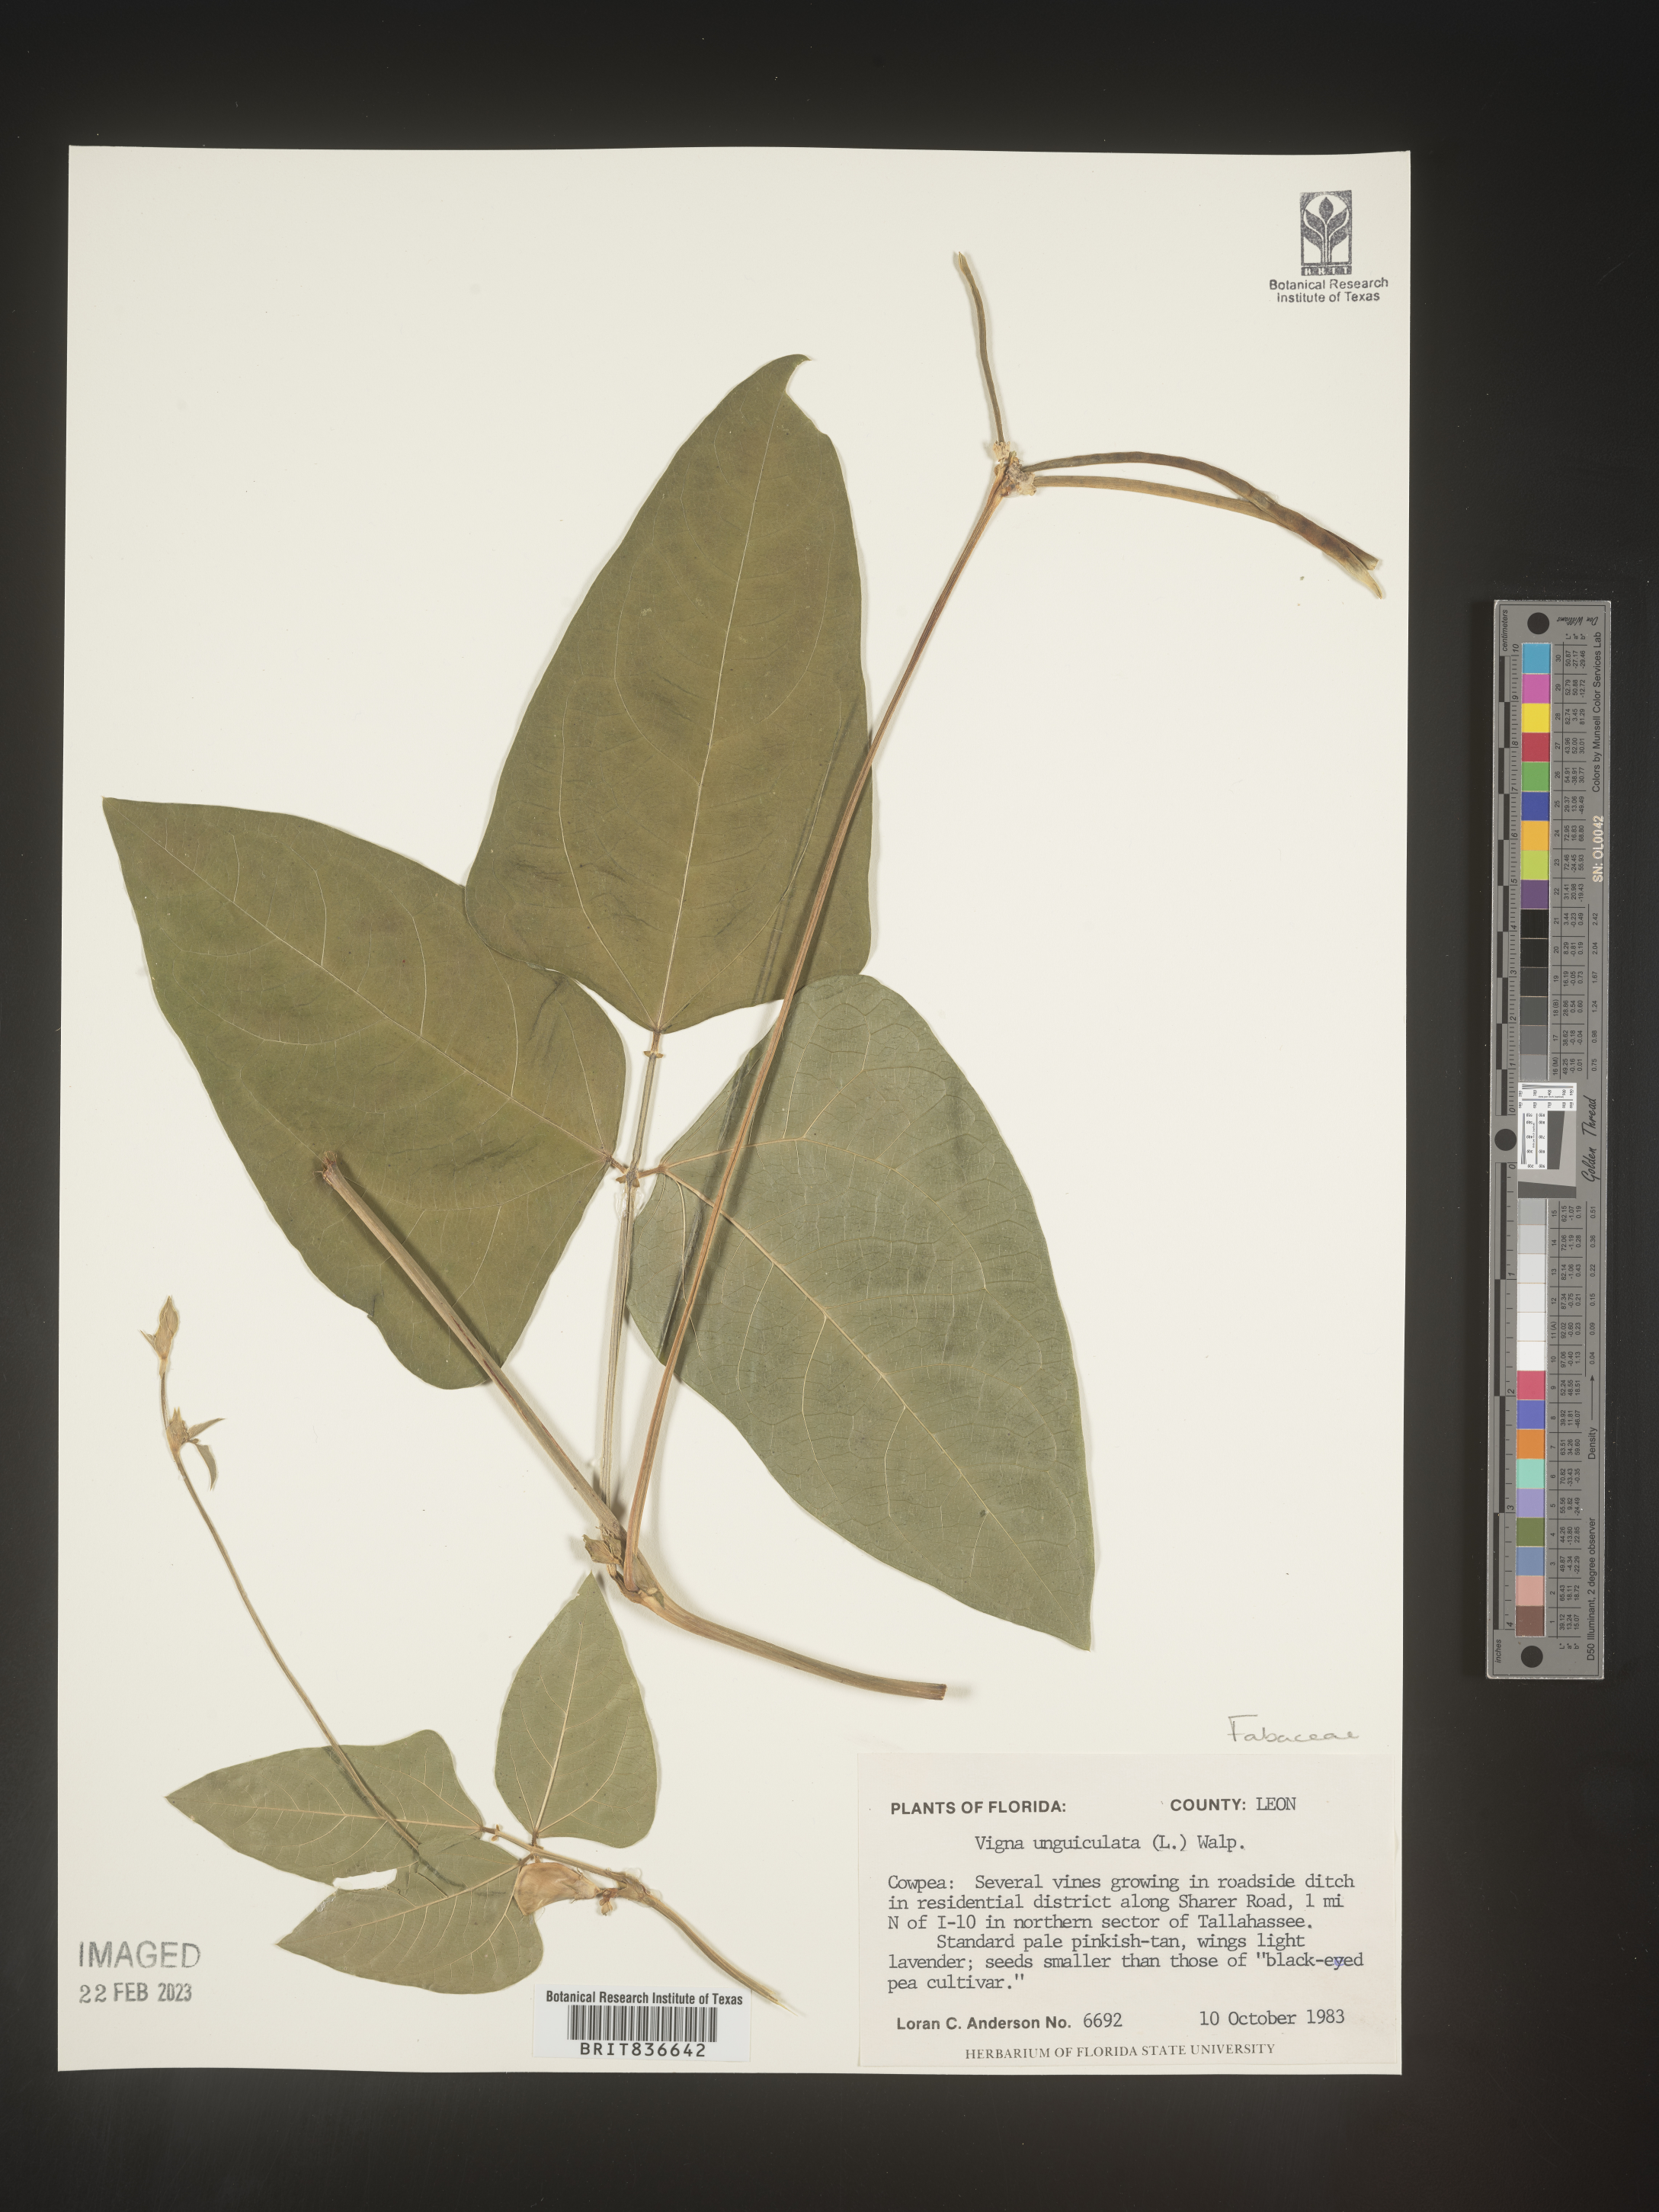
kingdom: Plantae
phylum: Tracheophyta
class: Magnoliopsida
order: Fabales
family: Fabaceae
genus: Vigna
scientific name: Vigna
